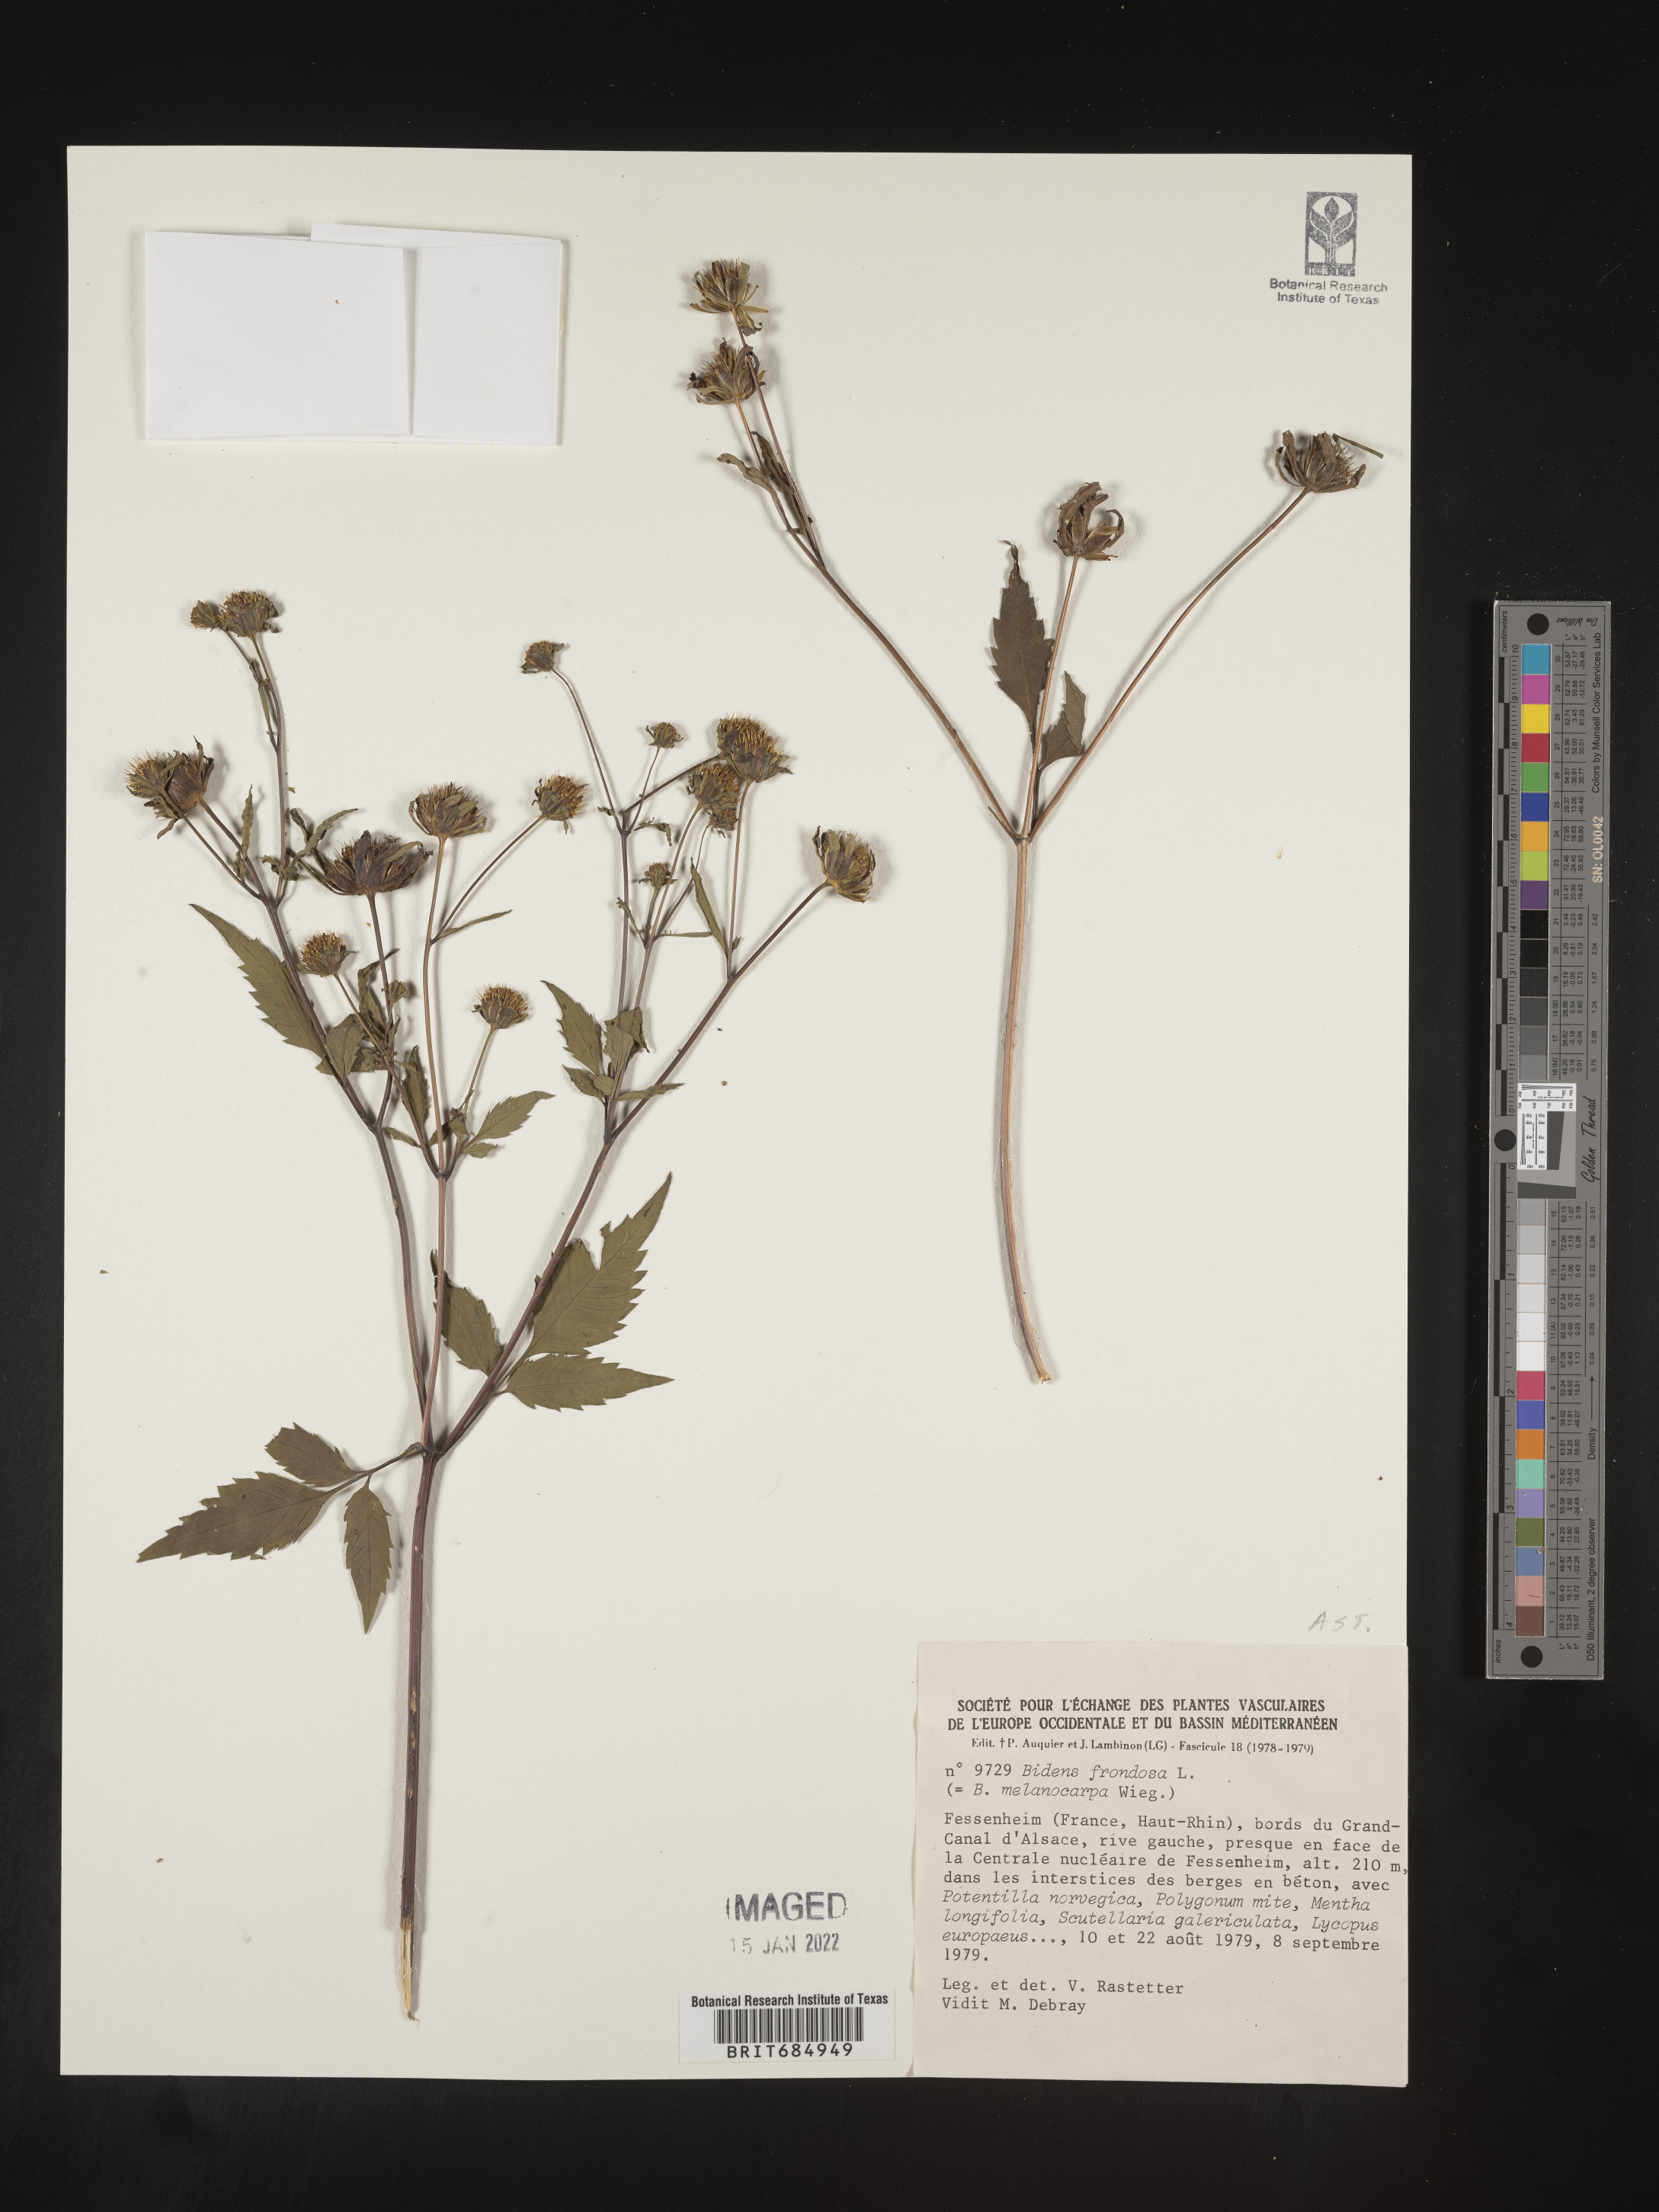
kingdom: Plantae
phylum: Tracheophyta
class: Magnoliopsida
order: Asterales
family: Asteraceae
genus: Bidens
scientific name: Bidens
